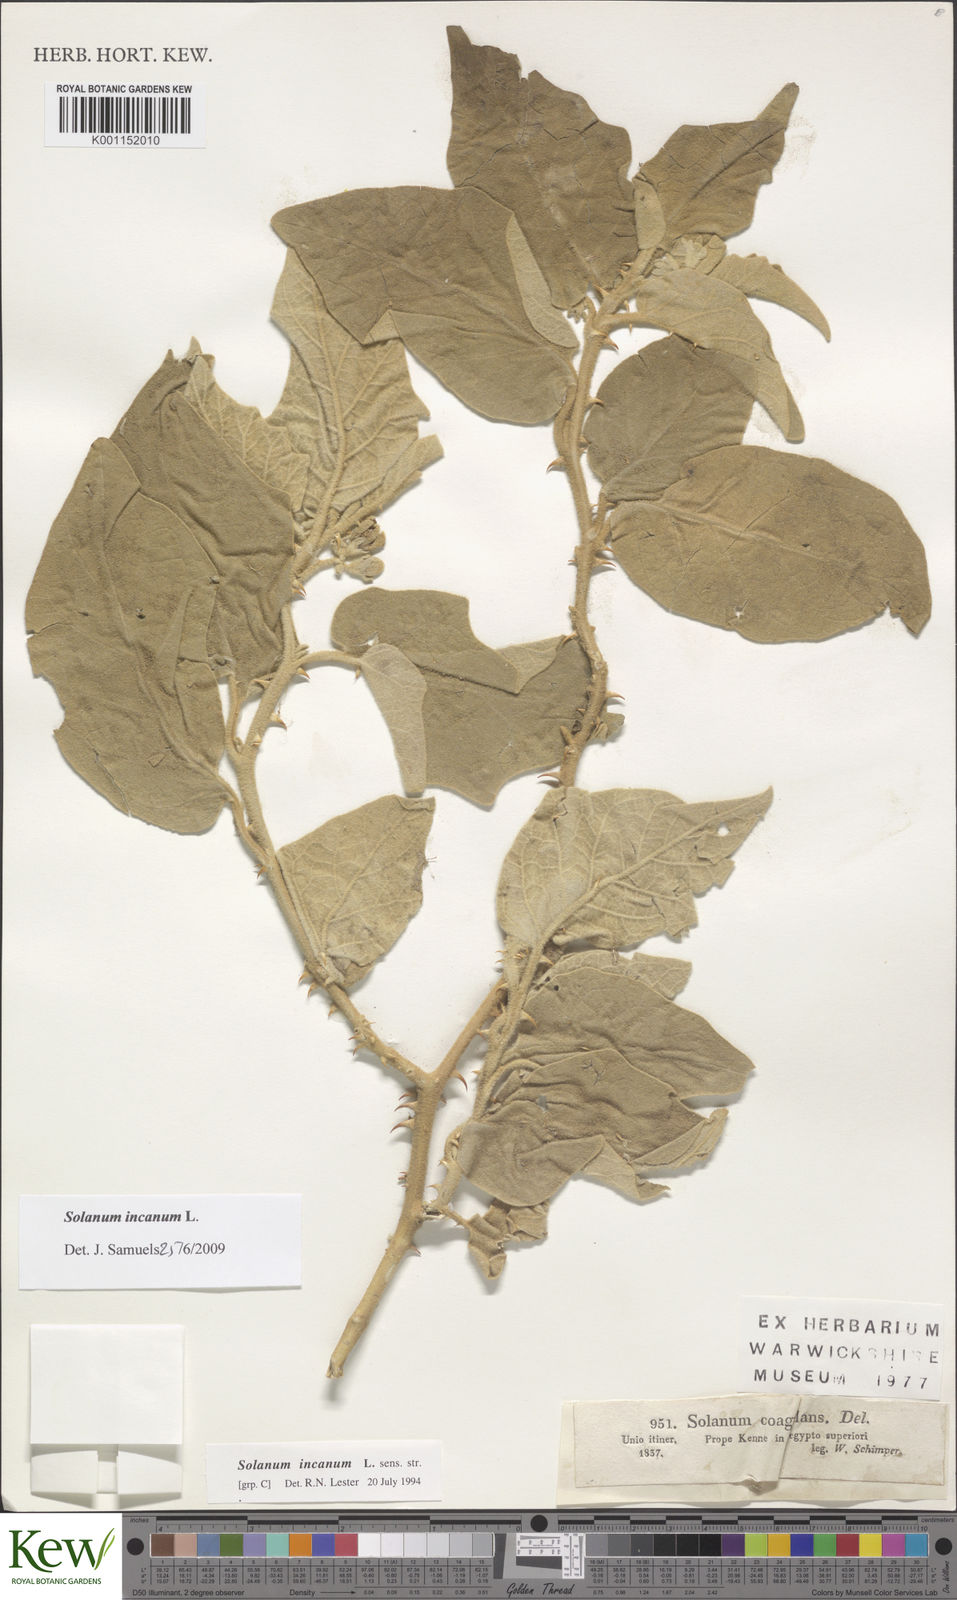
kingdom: Plantae
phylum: Tracheophyta
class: Magnoliopsida
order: Solanales
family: Solanaceae
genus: Solanum
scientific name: Solanum incanum
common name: Bitter apple
